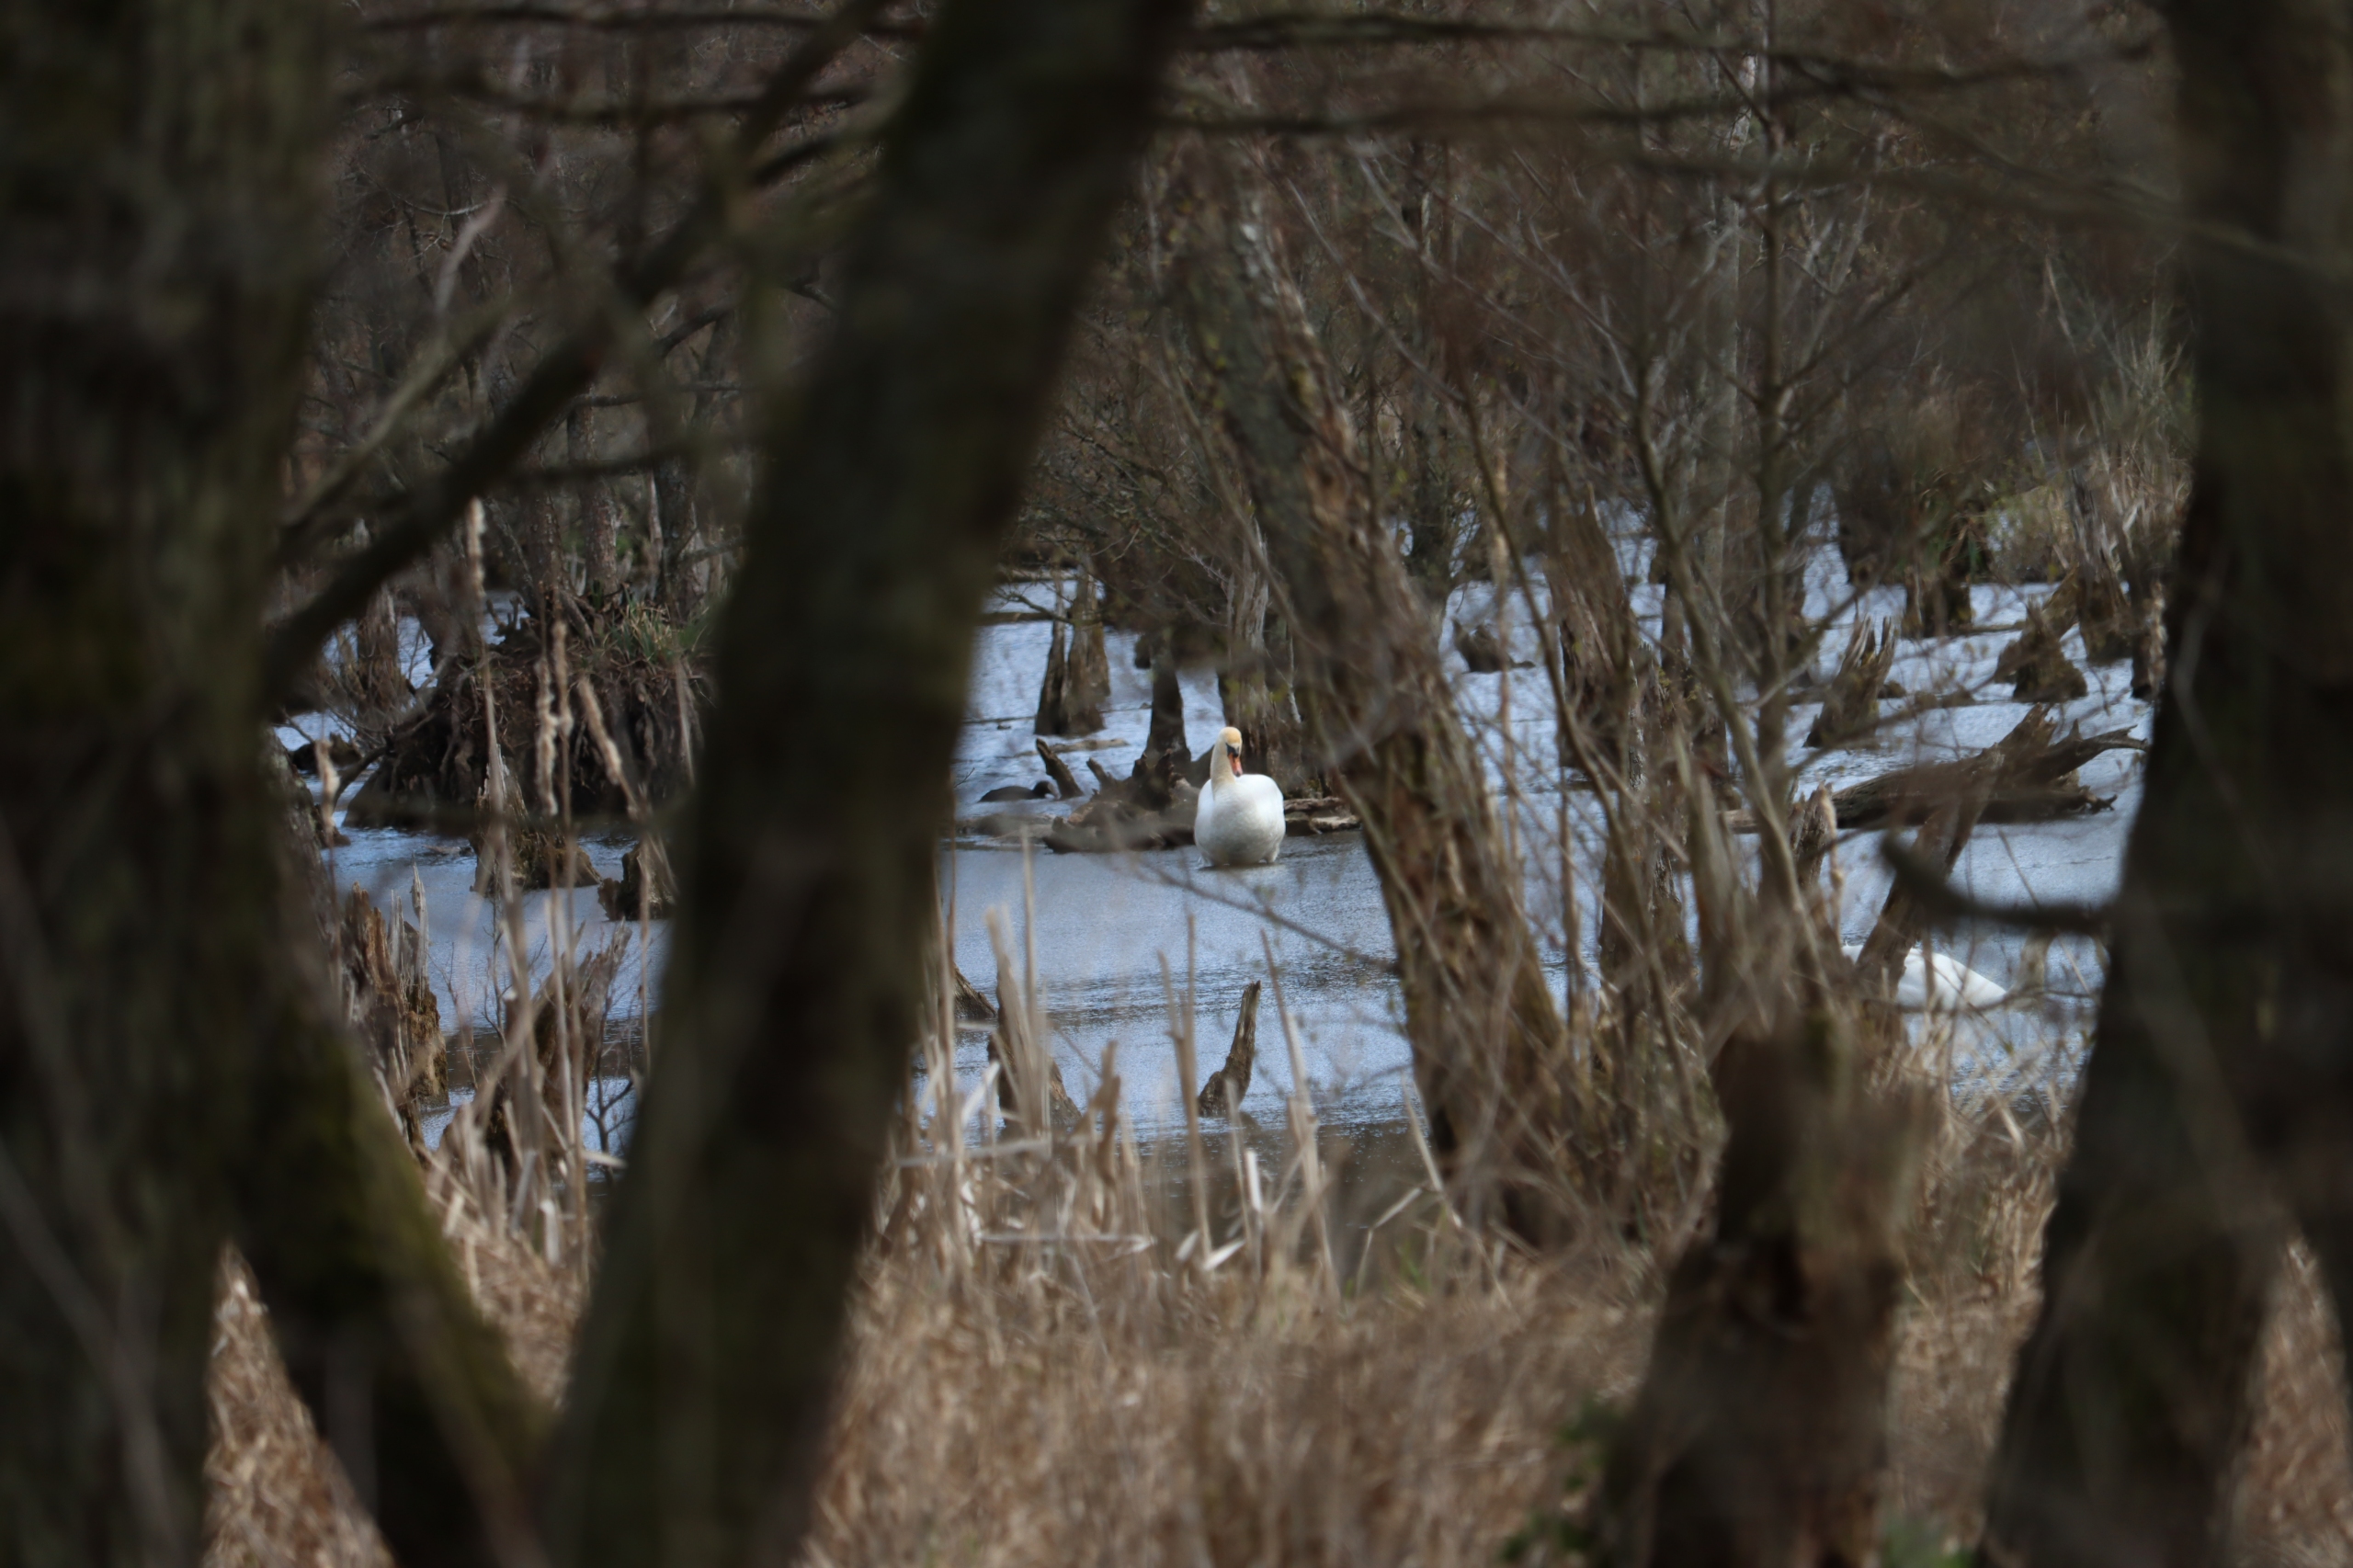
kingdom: Animalia
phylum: Chordata
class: Aves
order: Anseriformes
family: Anatidae
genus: Cygnus
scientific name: Cygnus olor
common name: Knopsvane
